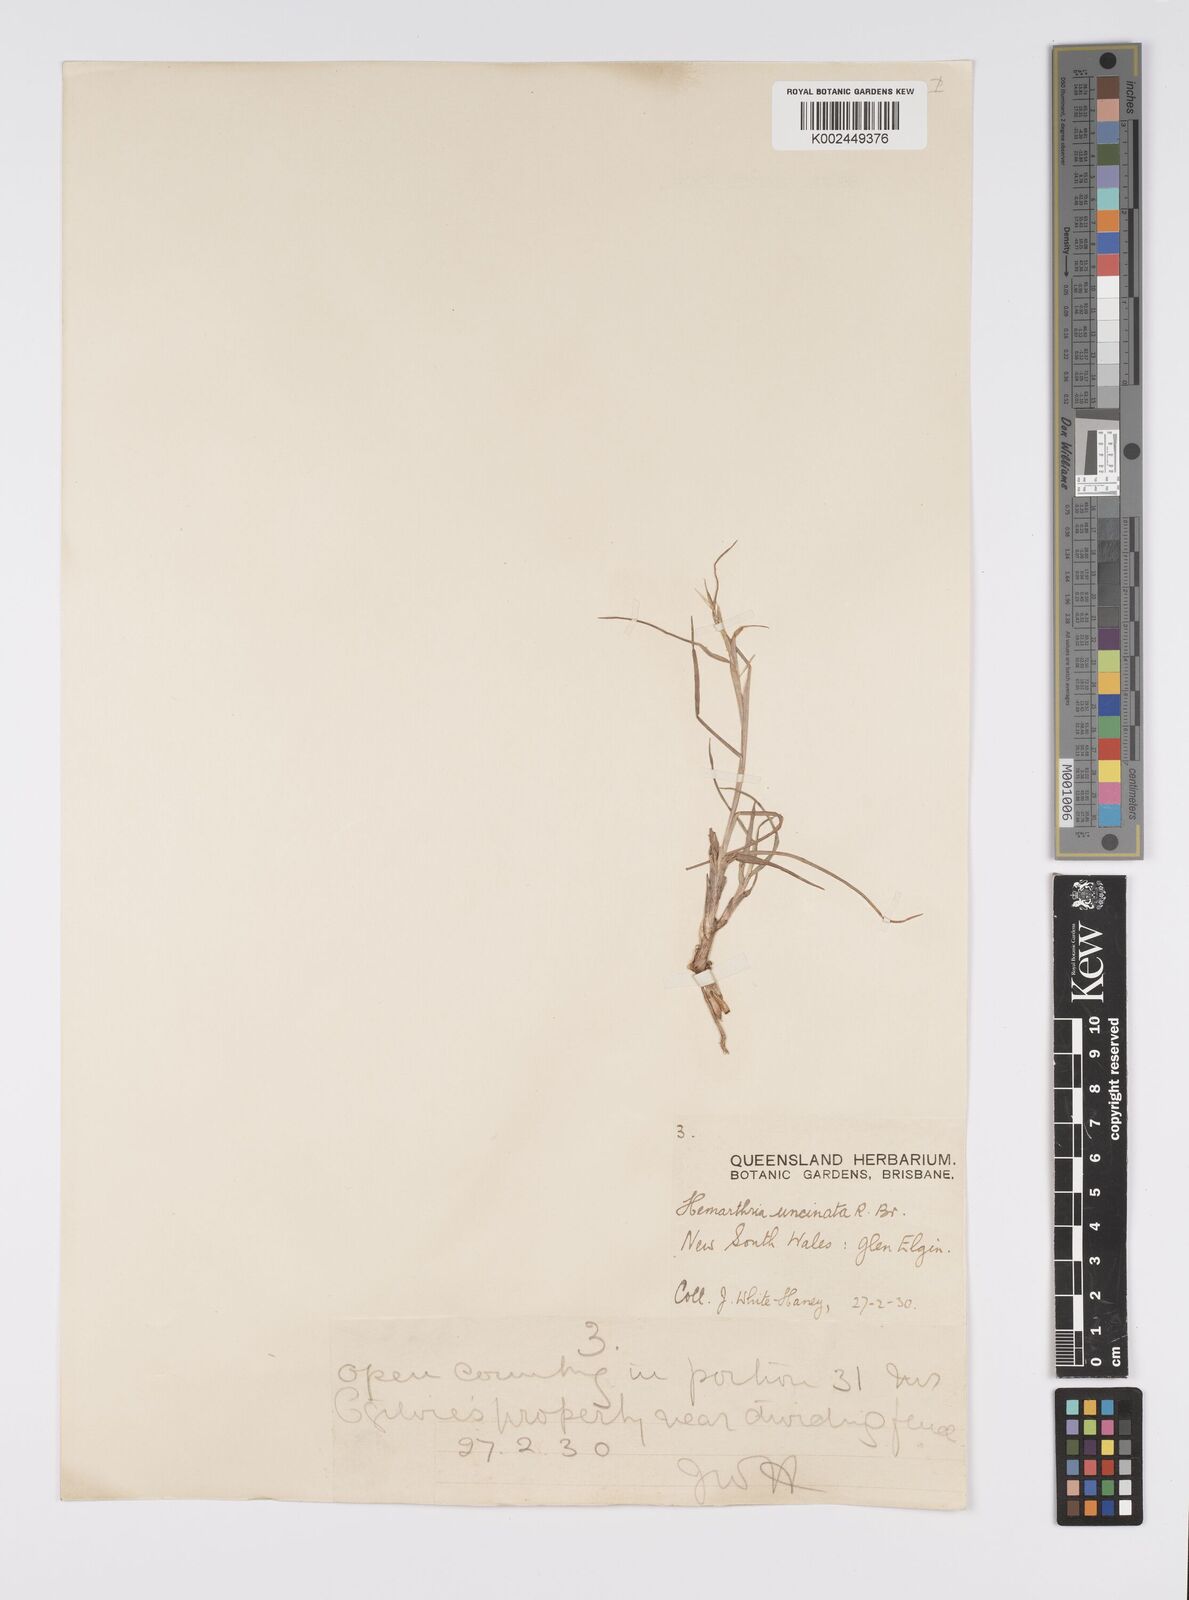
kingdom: Plantae
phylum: Tracheophyta
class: Liliopsida
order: Poales
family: Poaceae
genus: Hemarthria
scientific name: Hemarthria uncinata
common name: Matgrass
